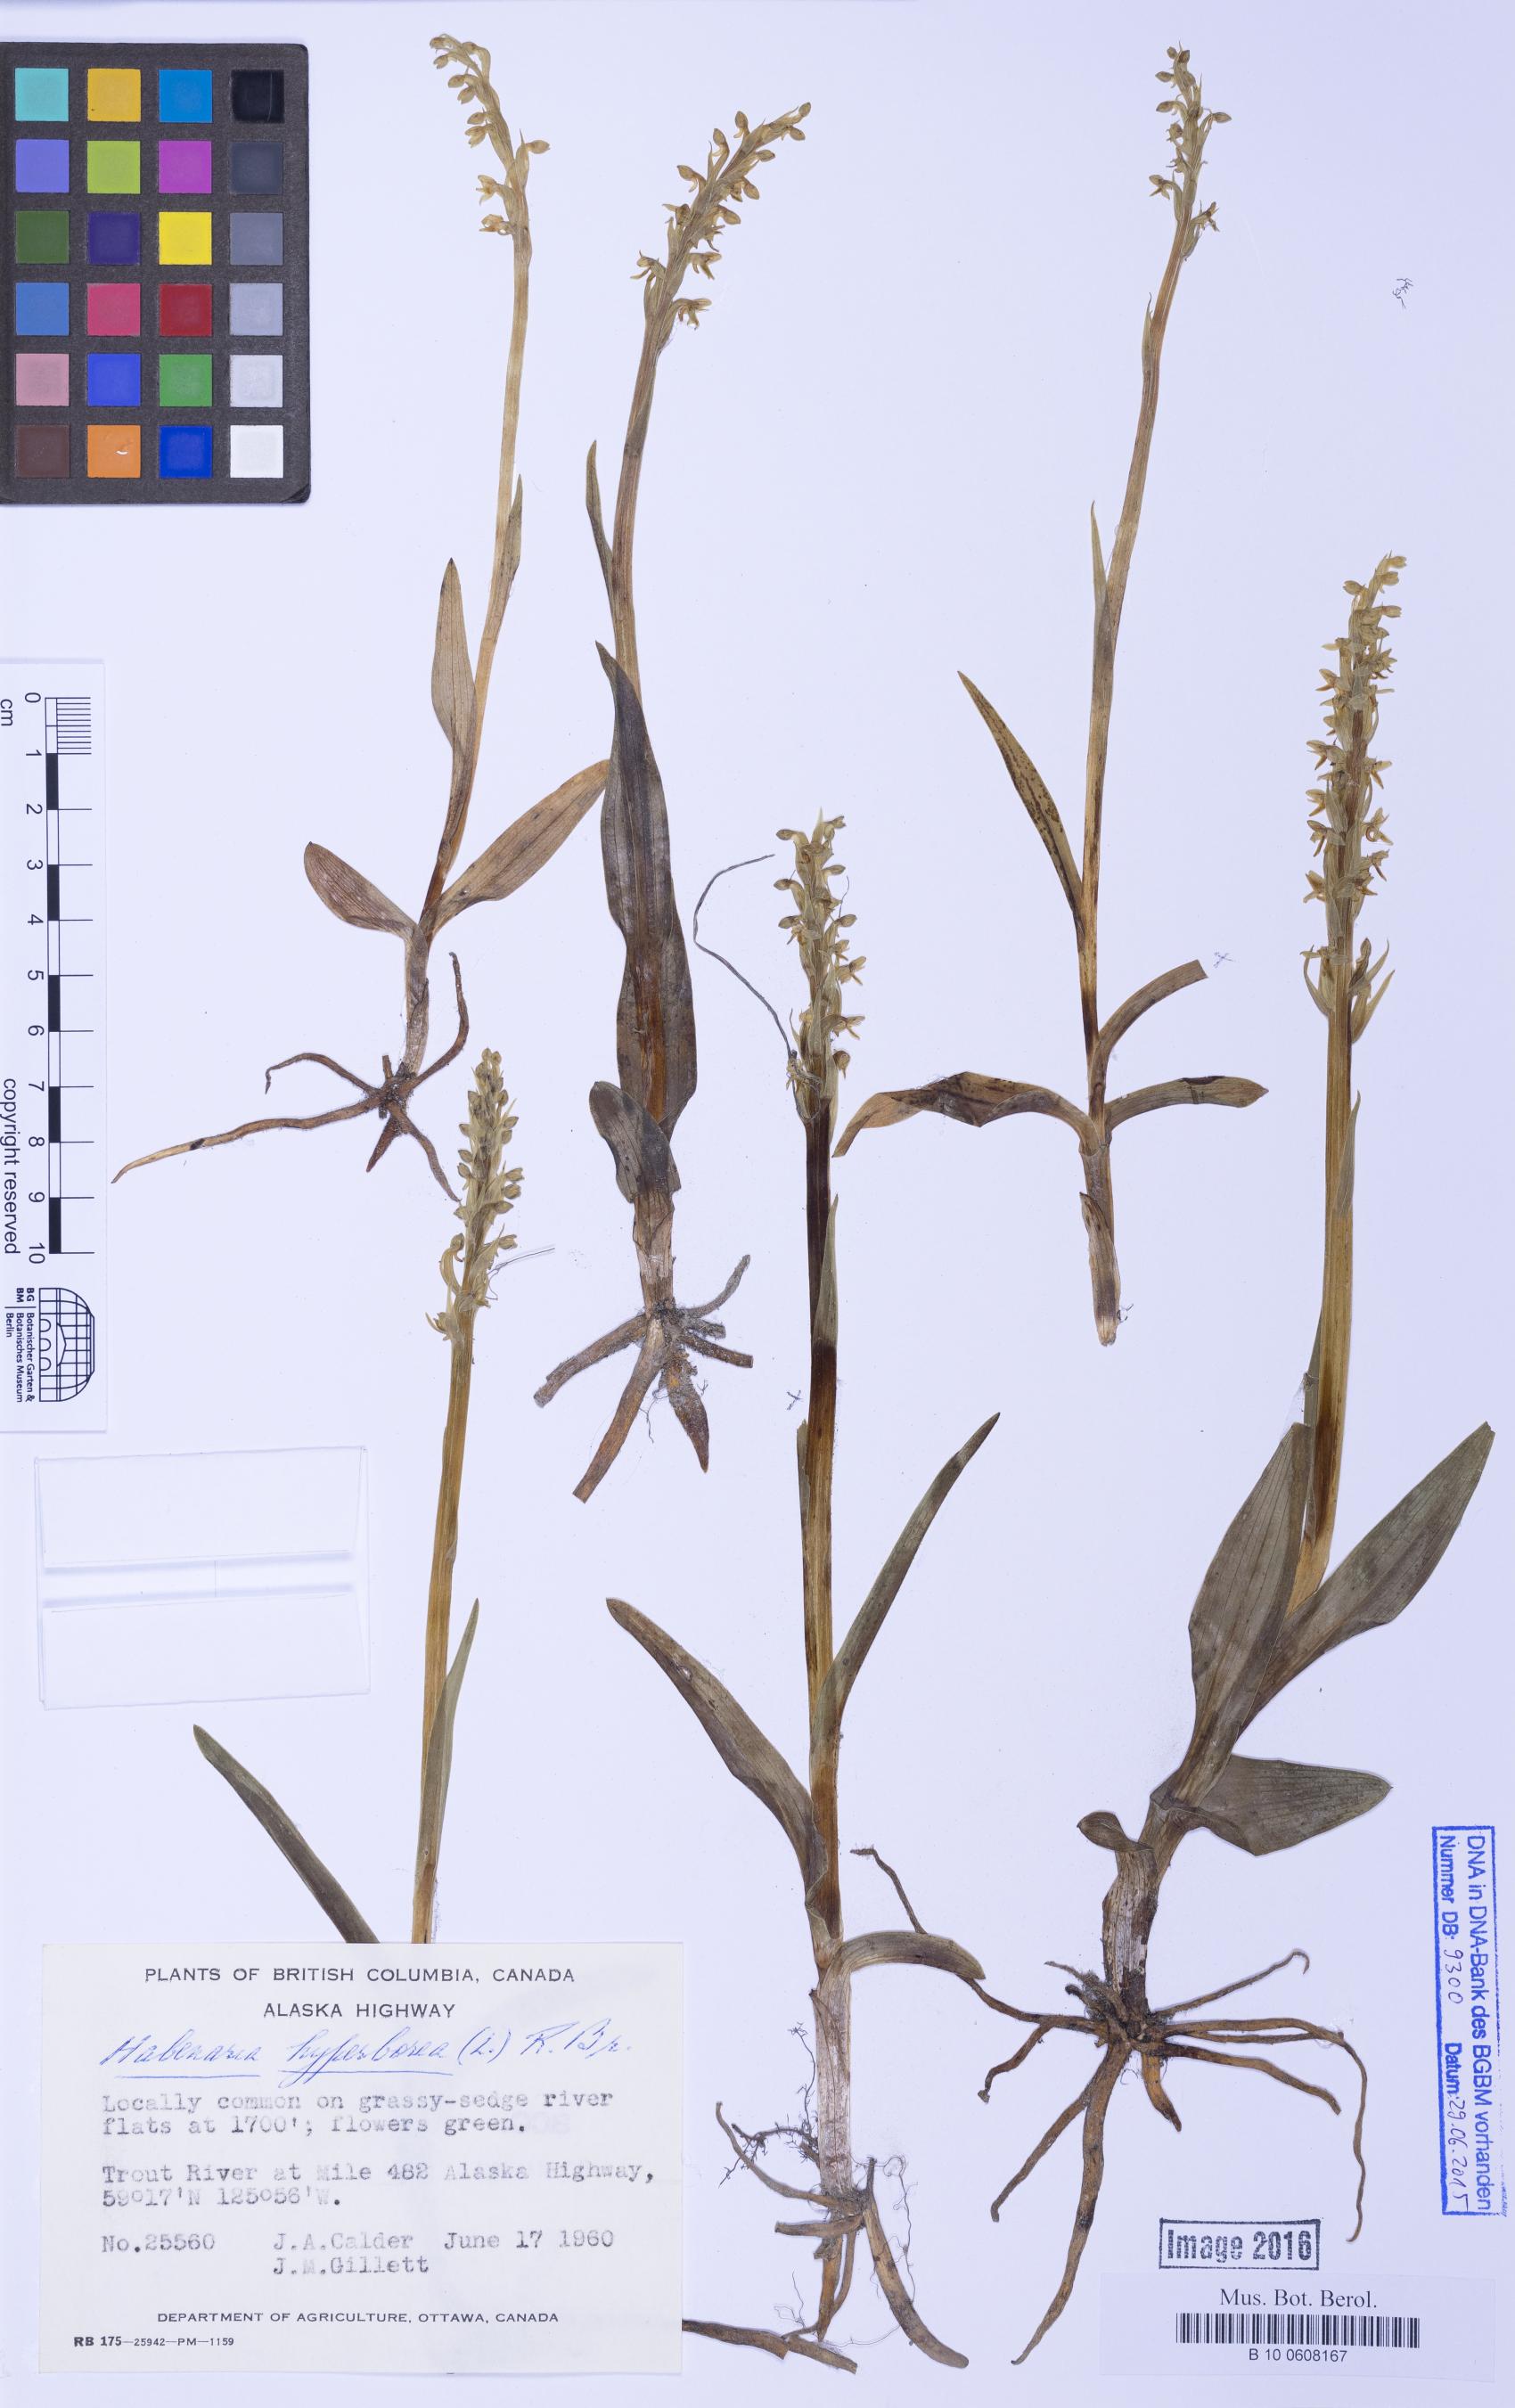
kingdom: Plantae
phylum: Tracheophyta
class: Liliopsida
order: Asparagales
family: Orchidaceae
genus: Platanthera
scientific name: Platanthera hyperborea
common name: Northern green orchid
